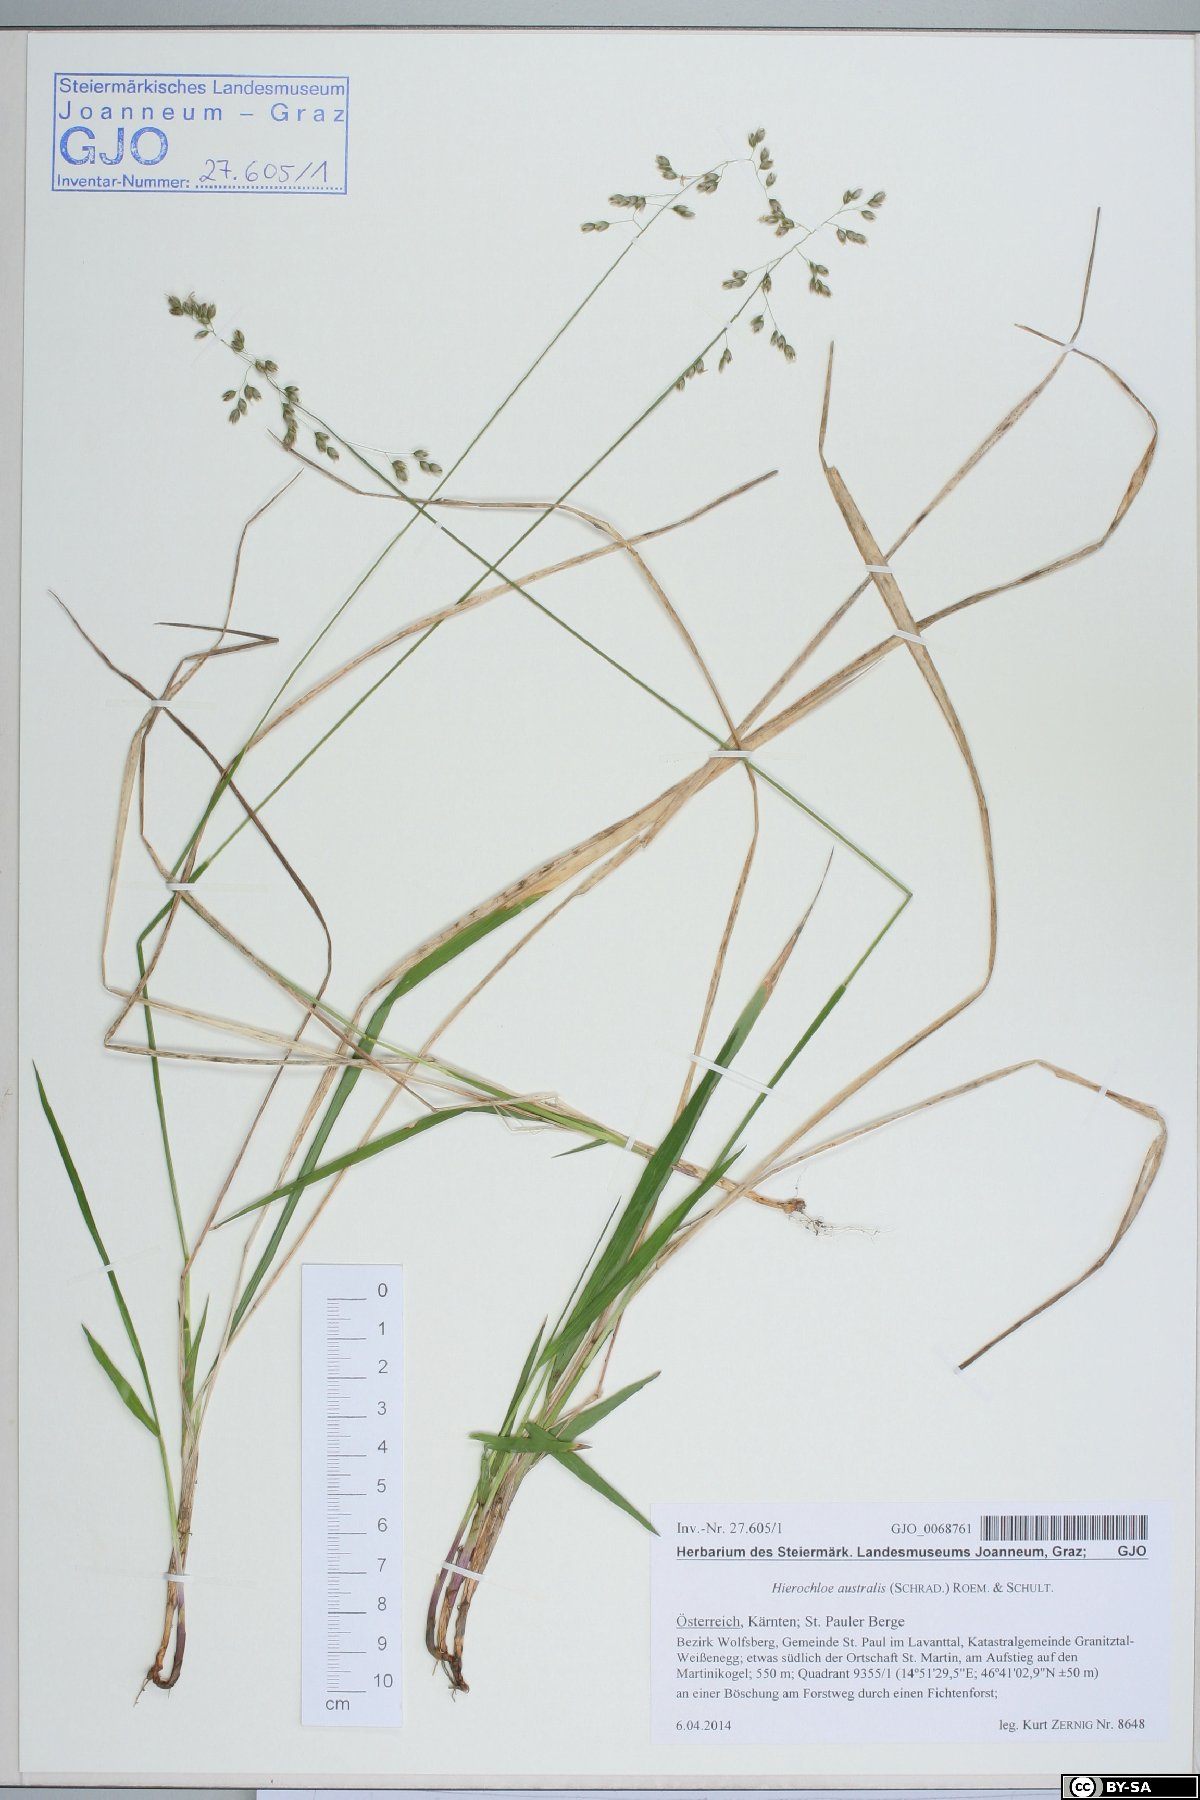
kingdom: Plantae
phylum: Tracheophyta
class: Liliopsida
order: Poales
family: Poaceae
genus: Anthoxanthum
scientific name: Anthoxanthum australe
